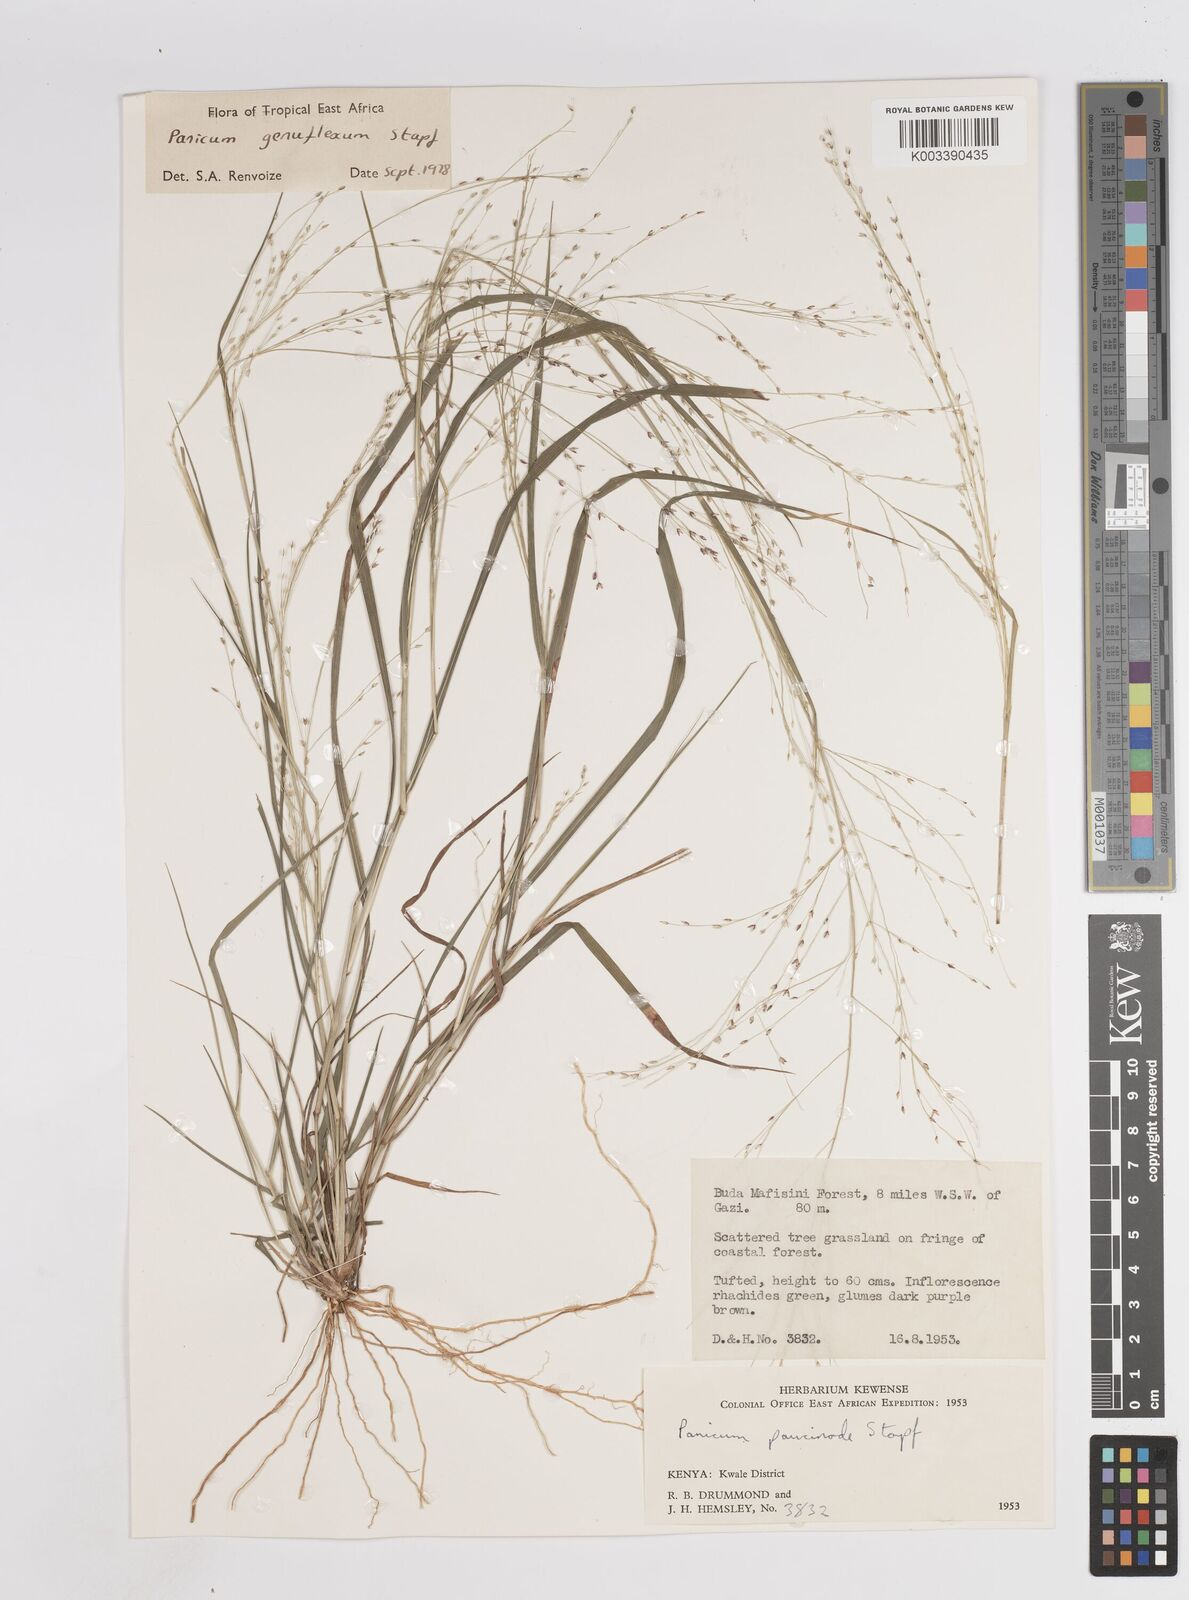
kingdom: Plantae
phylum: Tracheophyta
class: Liliopsida
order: Poales
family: Poaceae
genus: Panicum
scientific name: Panicum genuflexum
